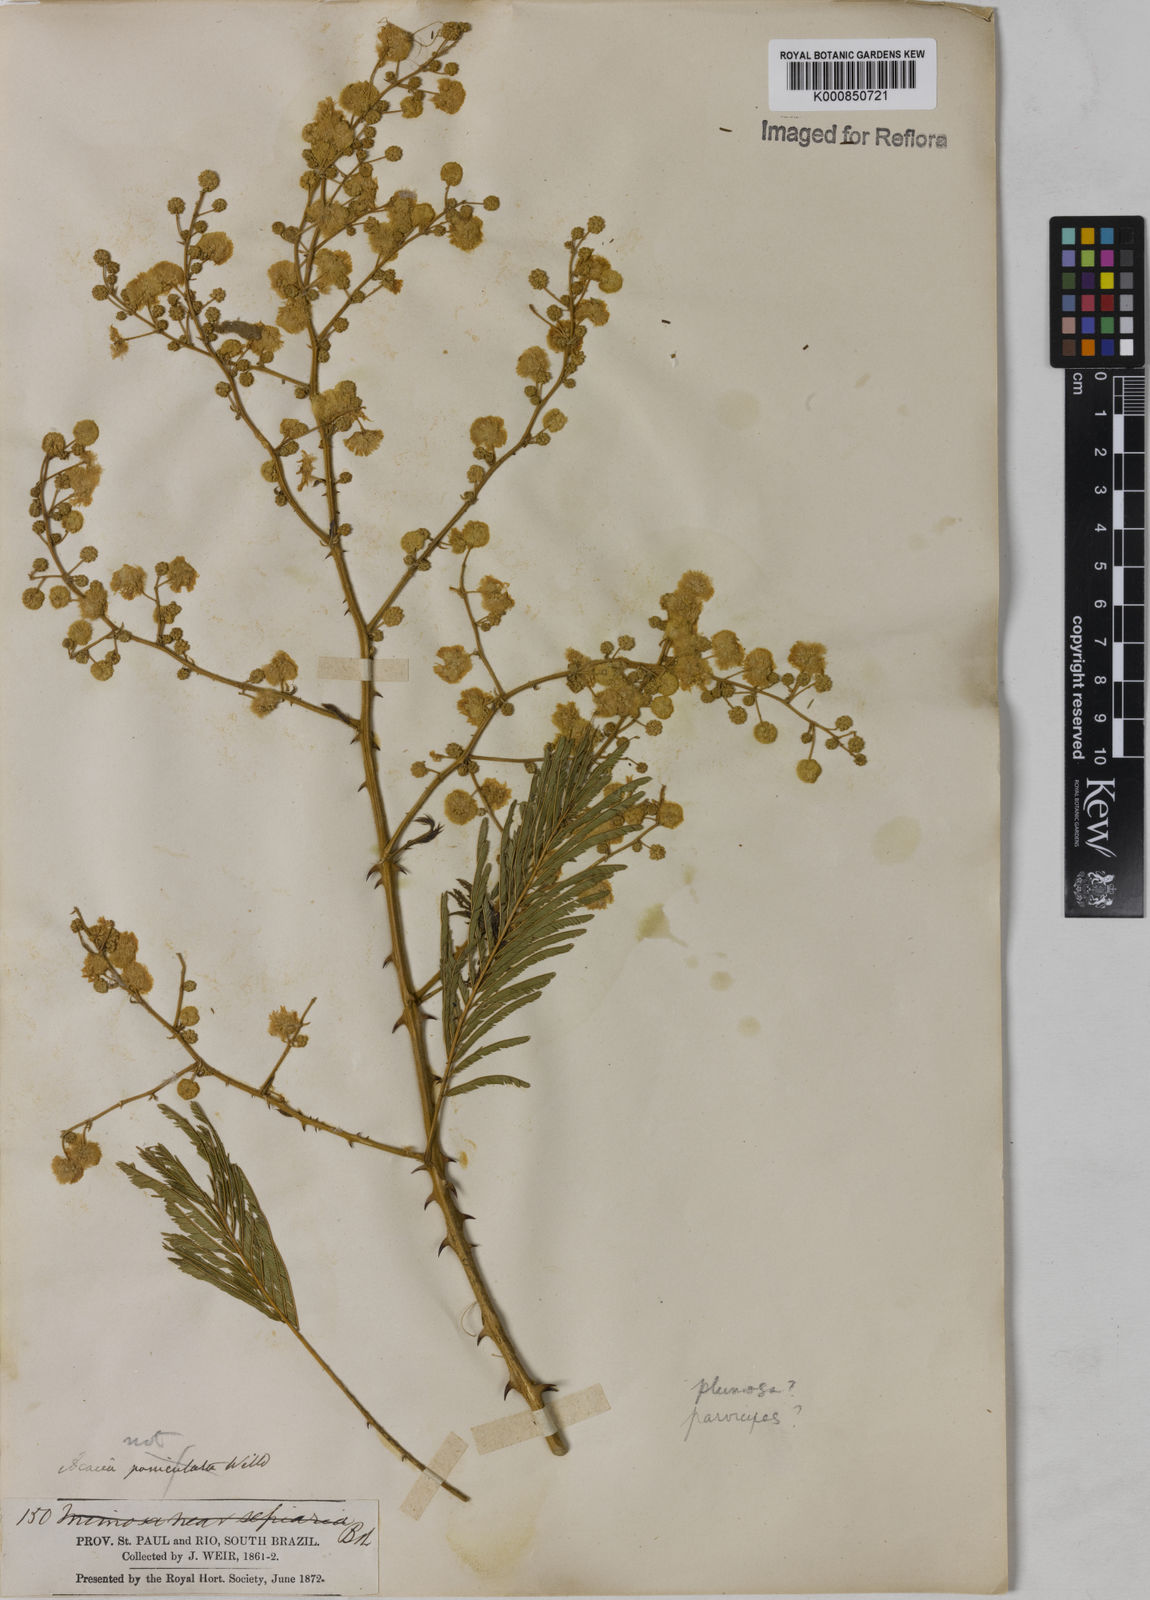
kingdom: Plantae
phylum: Tracheophyta
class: Magnoliopsida
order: Fabales
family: Fabaceae
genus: Senegalia
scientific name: Senegalia lowei
